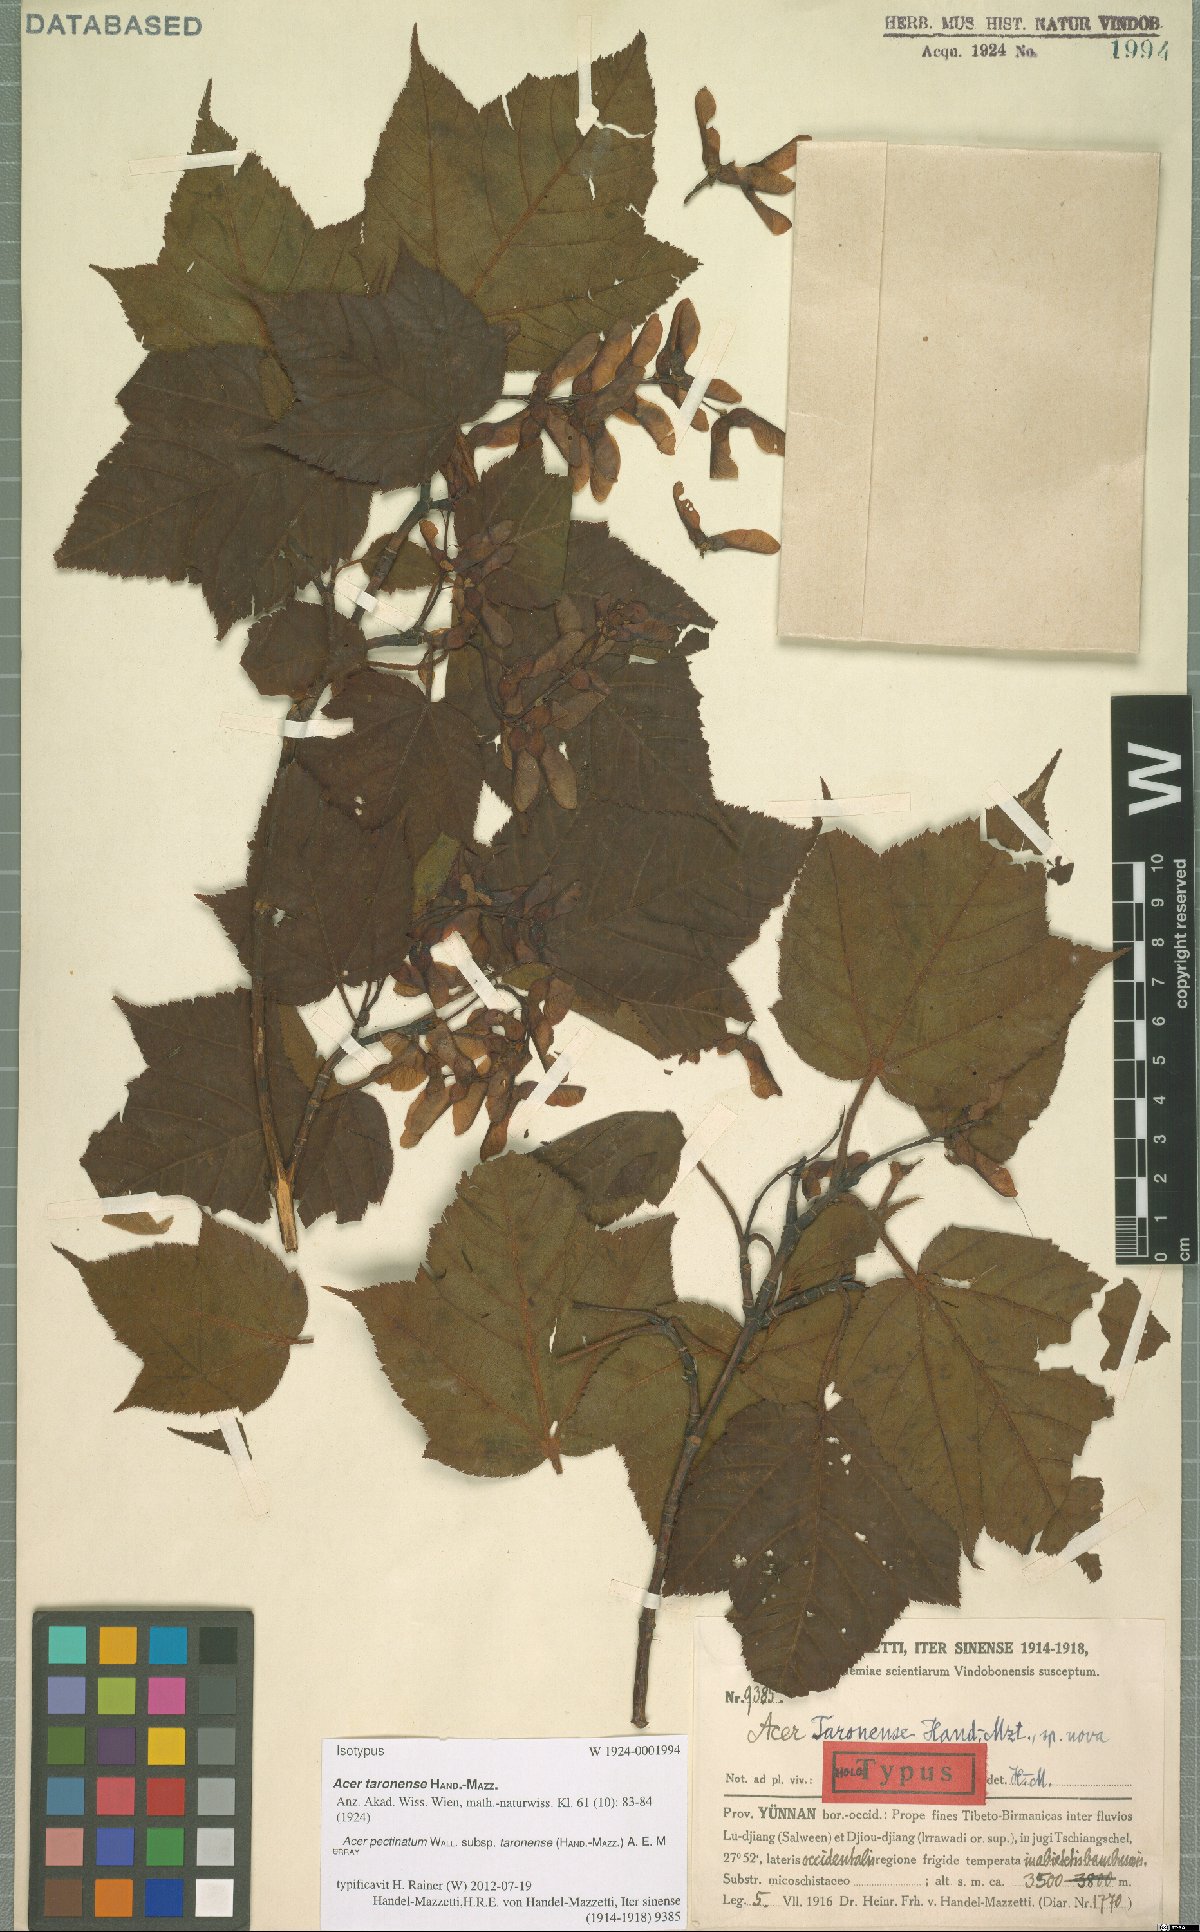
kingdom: Plantae
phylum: Tracheophyta
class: Magnoliopsida
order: Sapindales
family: Sapindaceae
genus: Acer
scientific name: Acer pectinatum
